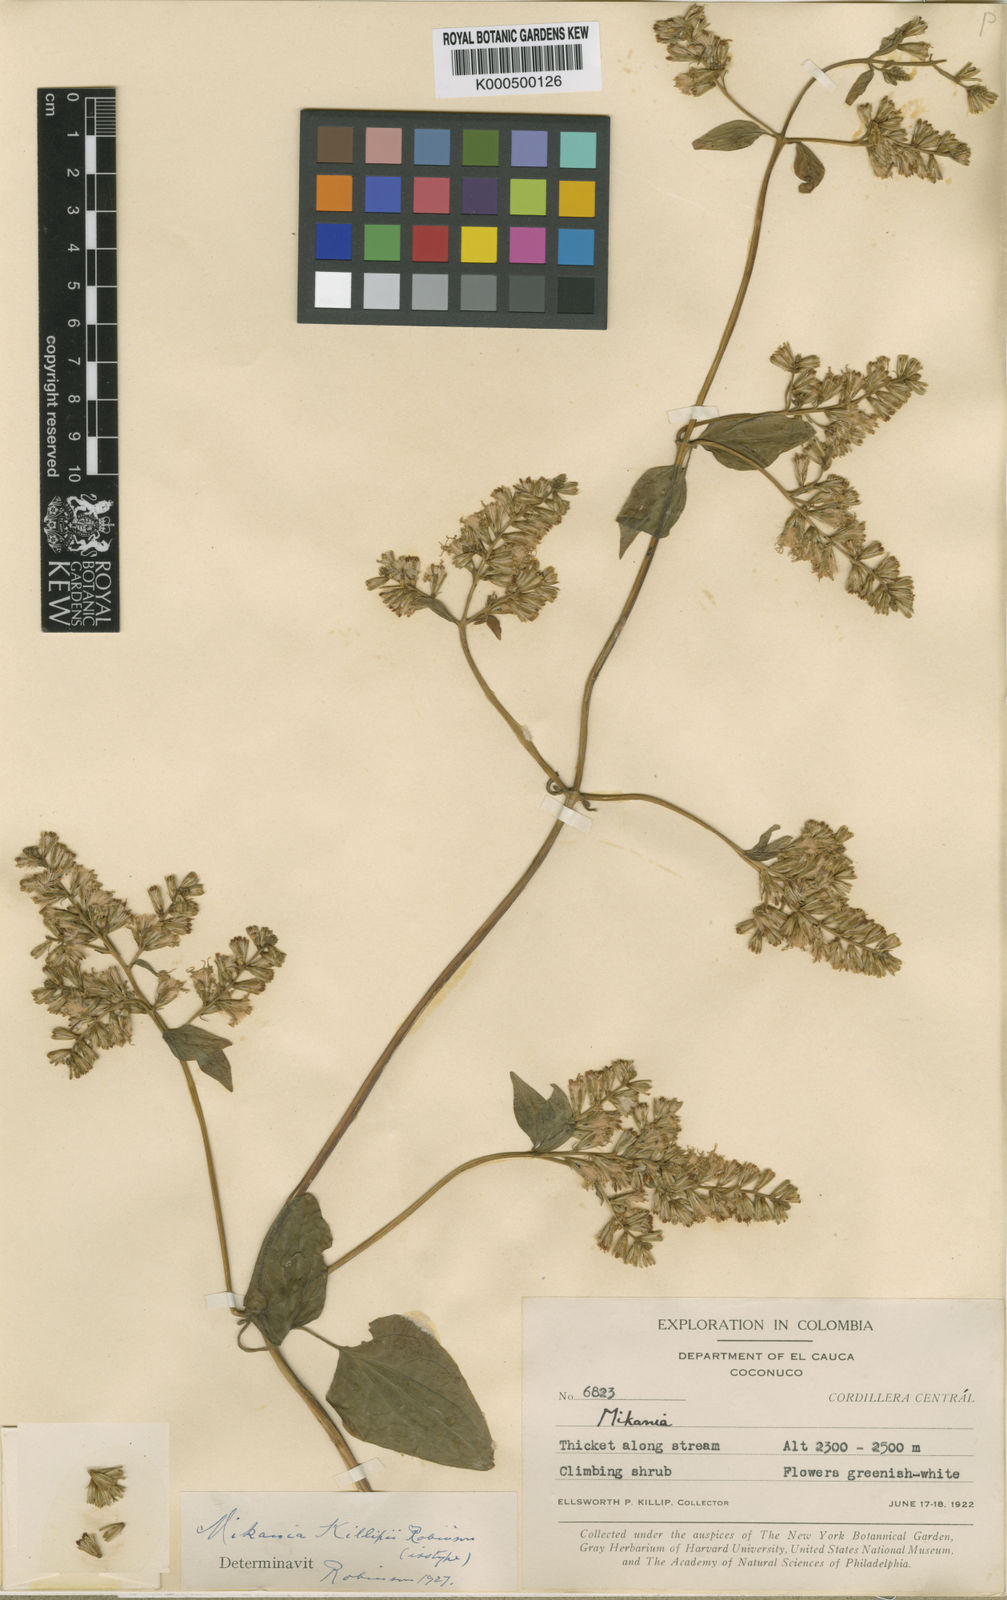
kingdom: Plantae
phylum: Tracheophyta
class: Magnoliopsida
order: Asterales
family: Asteraceae
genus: Mikania
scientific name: Mikania killipii
